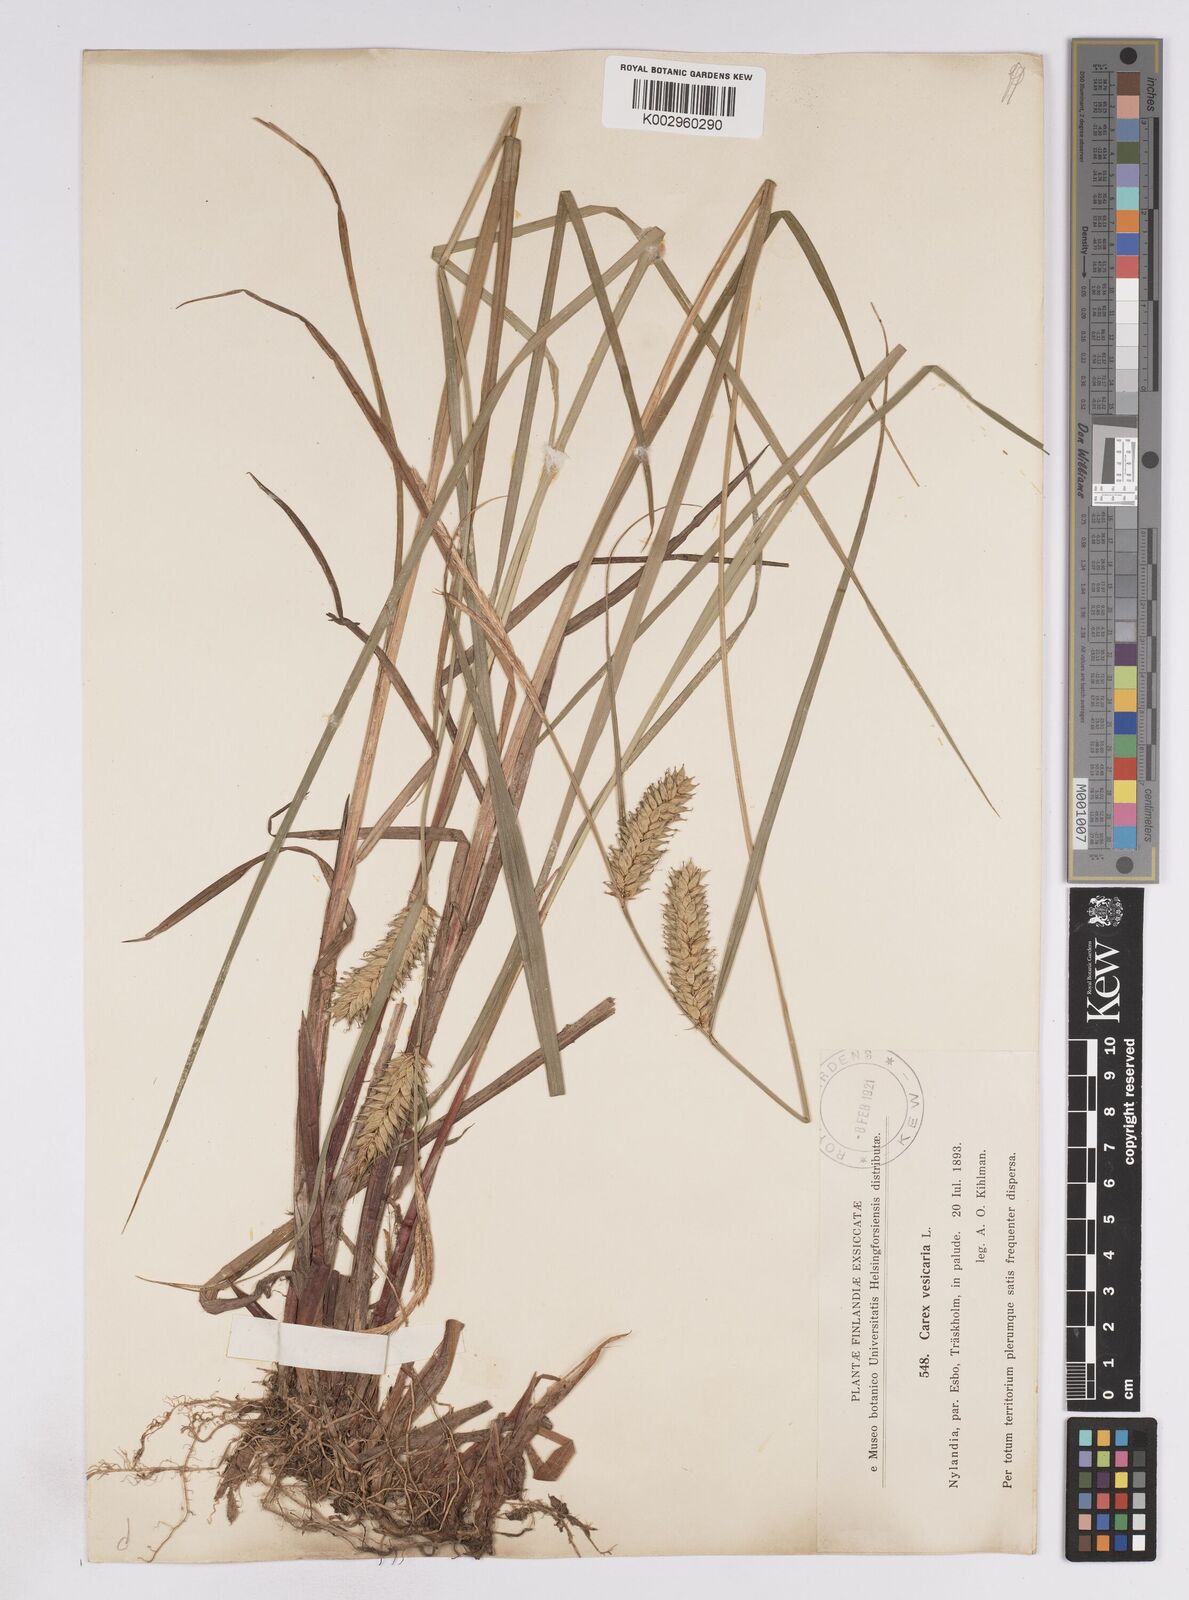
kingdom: Plantae
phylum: Tracheophyta
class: Liliopsida
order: Poales
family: Cyperaceae
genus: Carex
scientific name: Carex vesicaria
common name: Bladder-sedge
